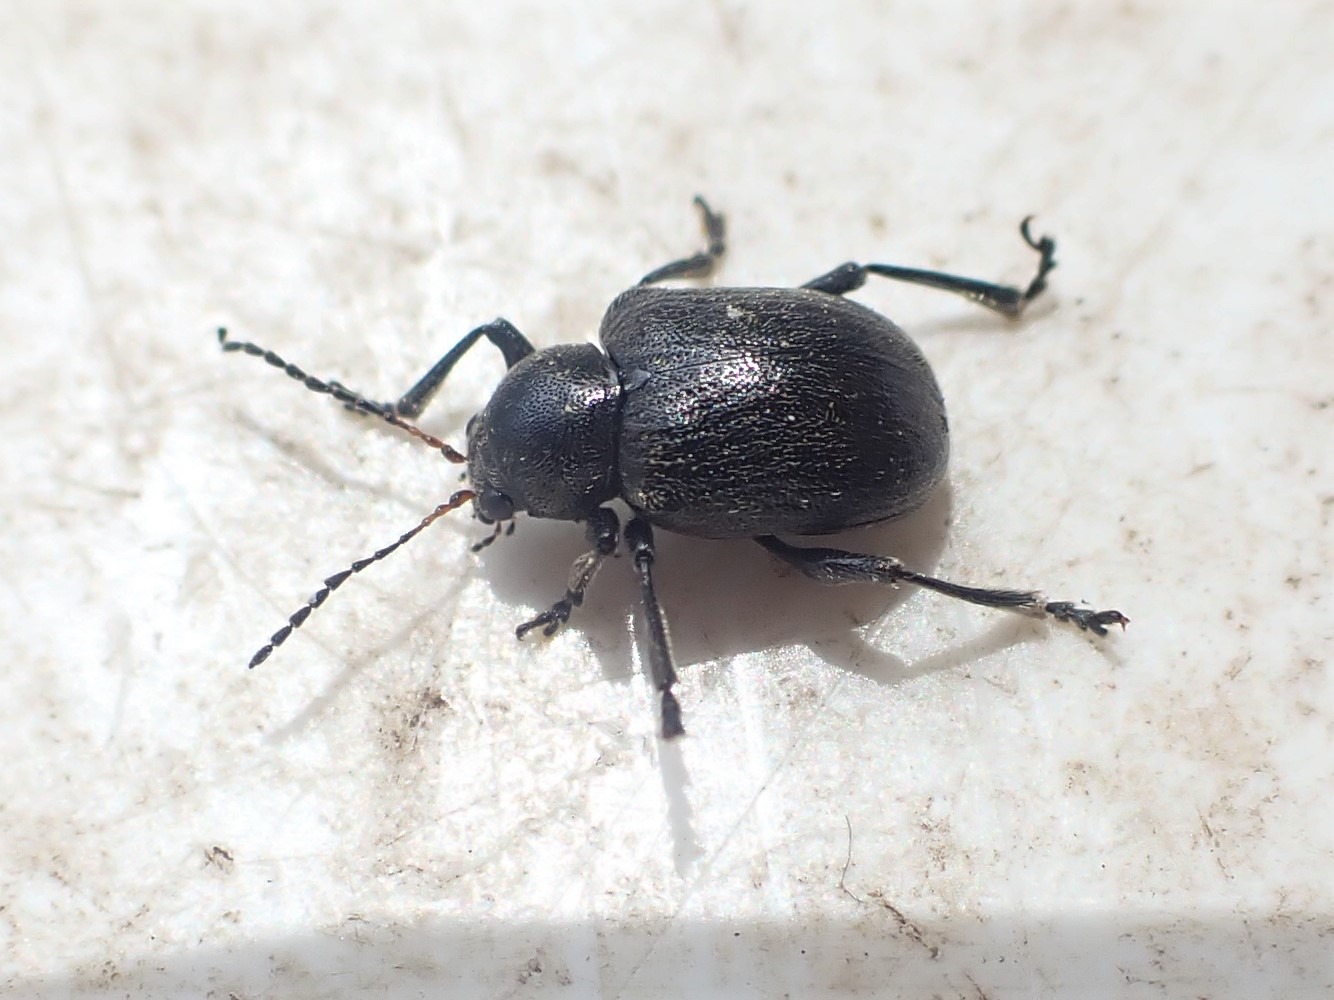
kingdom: Animalia
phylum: Arthropoda
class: Insecta
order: Coleoptera
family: Chrysomelidae
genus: Bromius
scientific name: Bromius obscurus
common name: Gederamsbille
